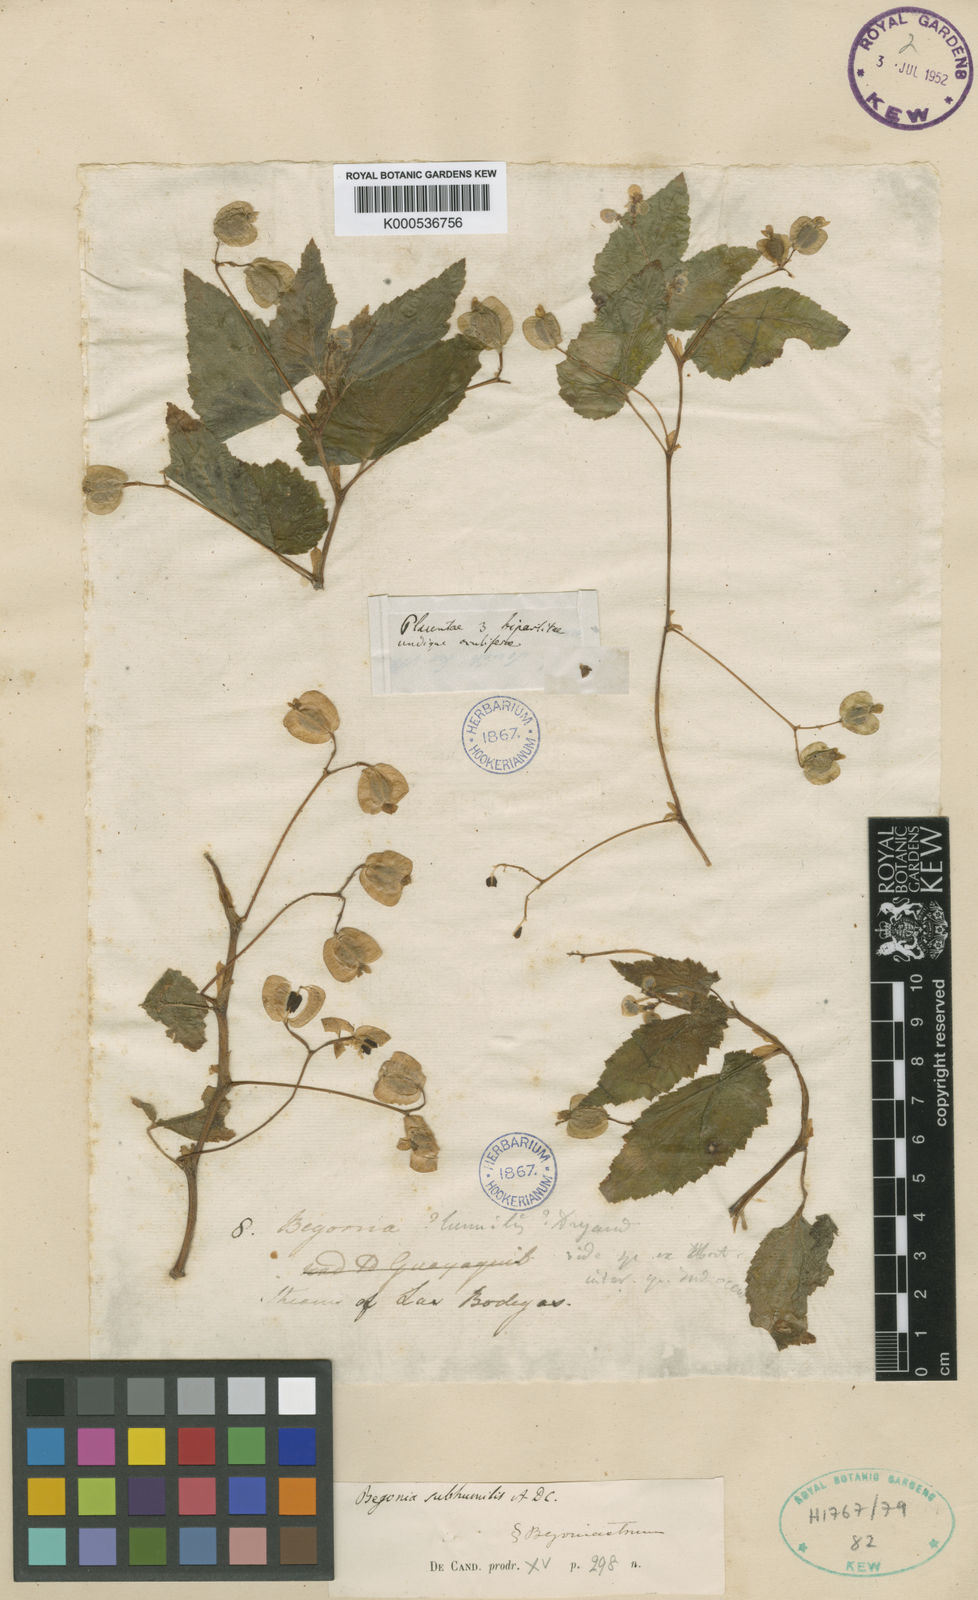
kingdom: Plantae
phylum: Tracheophyta
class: Magnoliopsida
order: Cucurbitales
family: Begoniaceae
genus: Begonia
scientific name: Begonia humilis
